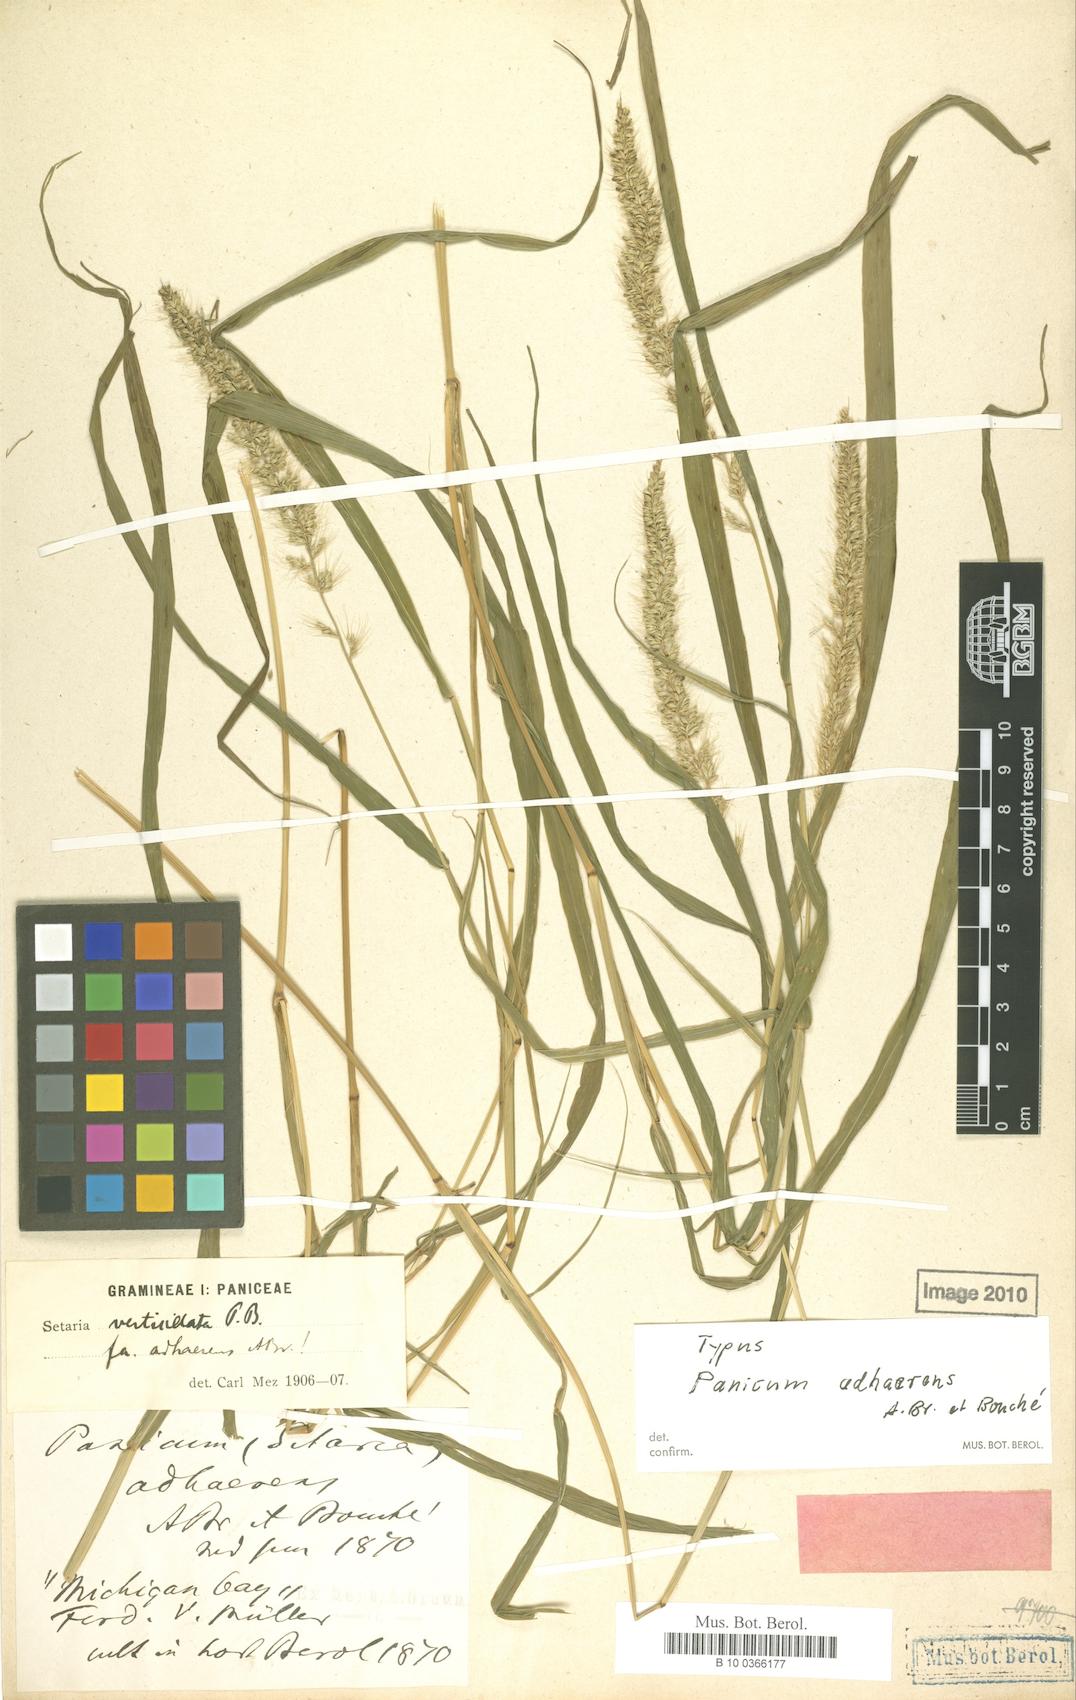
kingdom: Plantae
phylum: Tracheophyta
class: Liliopsida
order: Poales
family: Poaceae
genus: Setaria
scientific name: Setaria adhaerens
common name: Adherent bristle-grass
